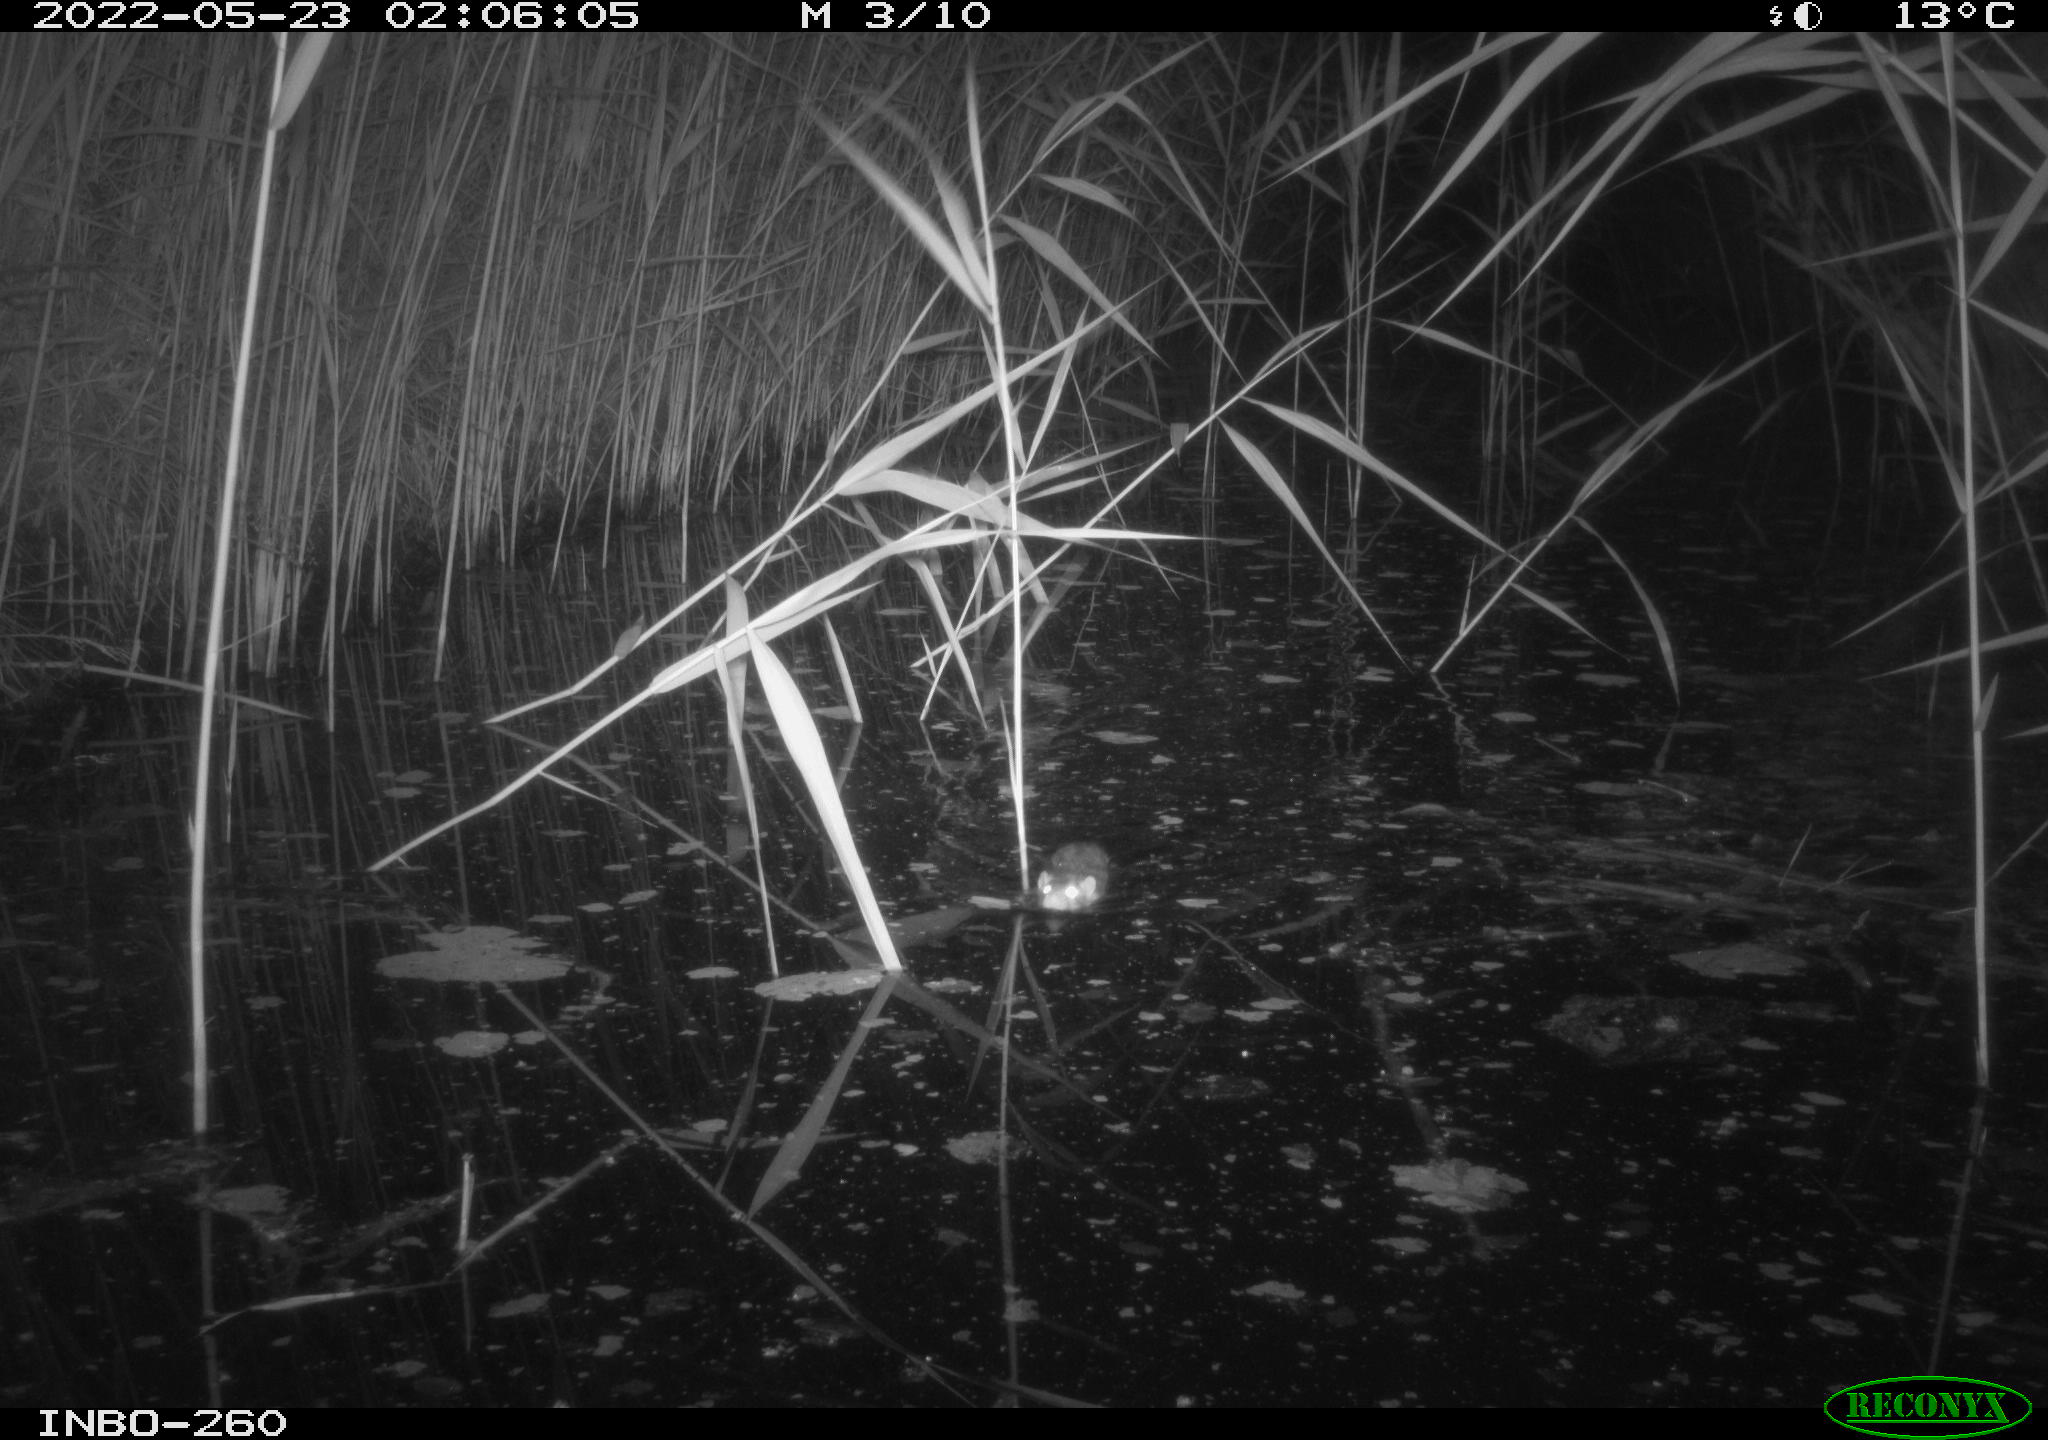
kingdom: Animalia
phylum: Chordata
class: Mammalia
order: Rodentia
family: Muridae
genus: Rattus
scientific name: Rattus norvegicus
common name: Brown rat
